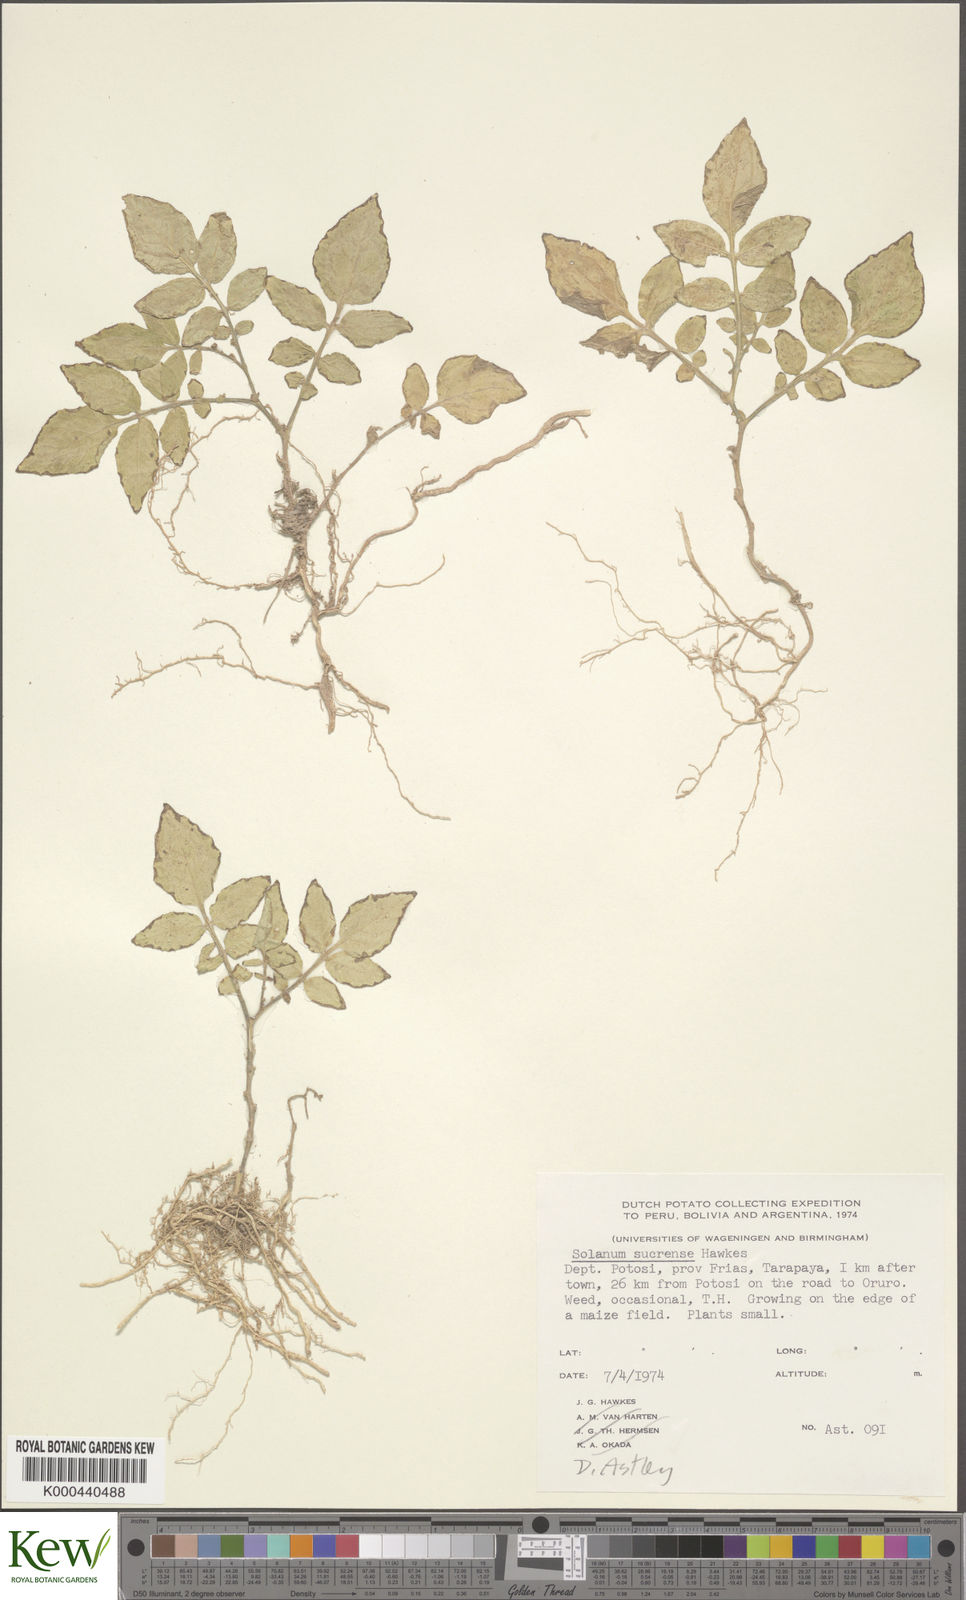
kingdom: Plantae
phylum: Tracheophyta
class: Magnoliopsida
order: Solanales
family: Solanaceae
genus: Solanum
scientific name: Solanum brevicaule
